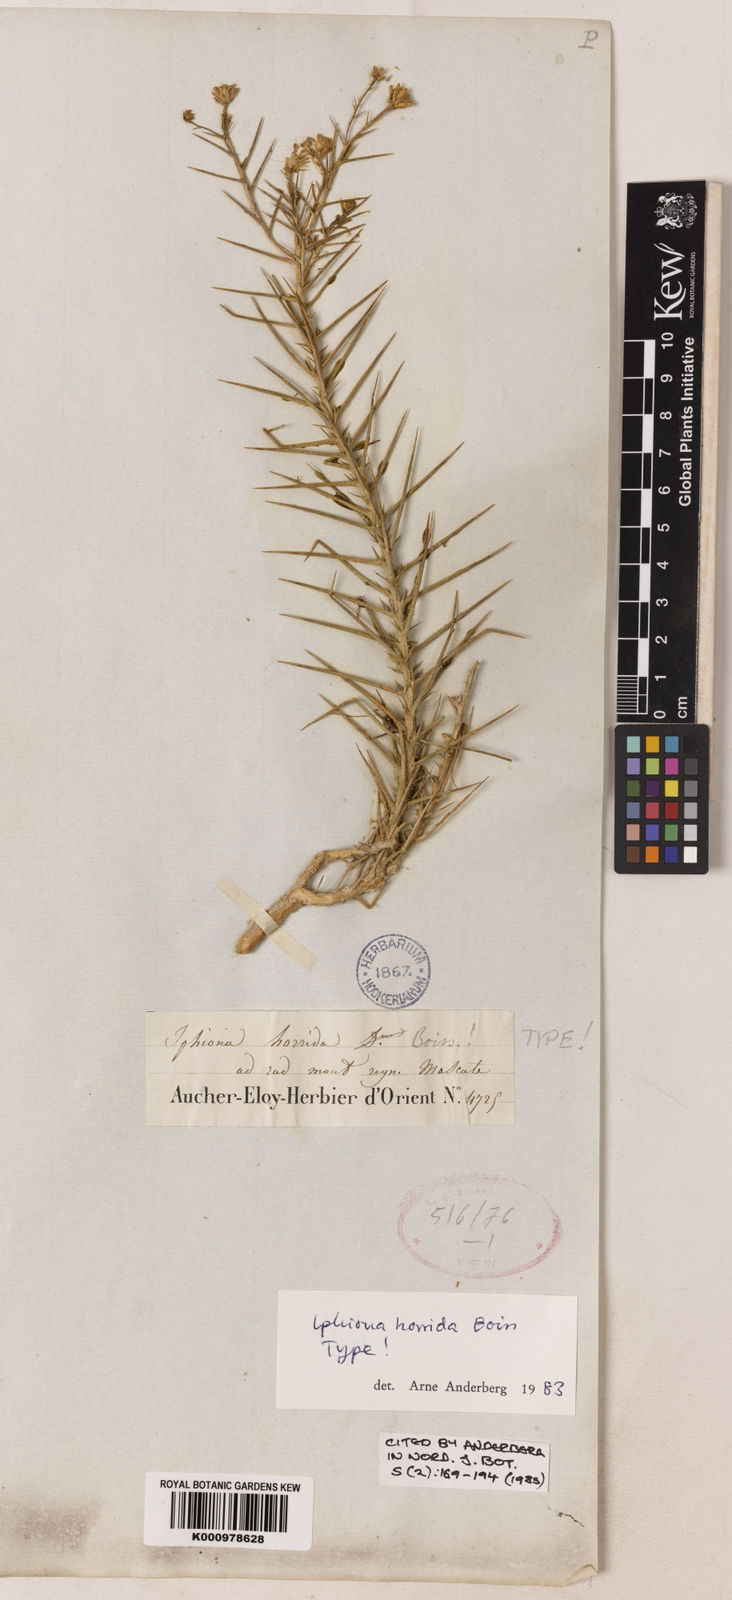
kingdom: Plantae
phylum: Tracheophyta
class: Magnoliopsida
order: Asterales
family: Asteraceae
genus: Iphiona
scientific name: Iphiona horrida
